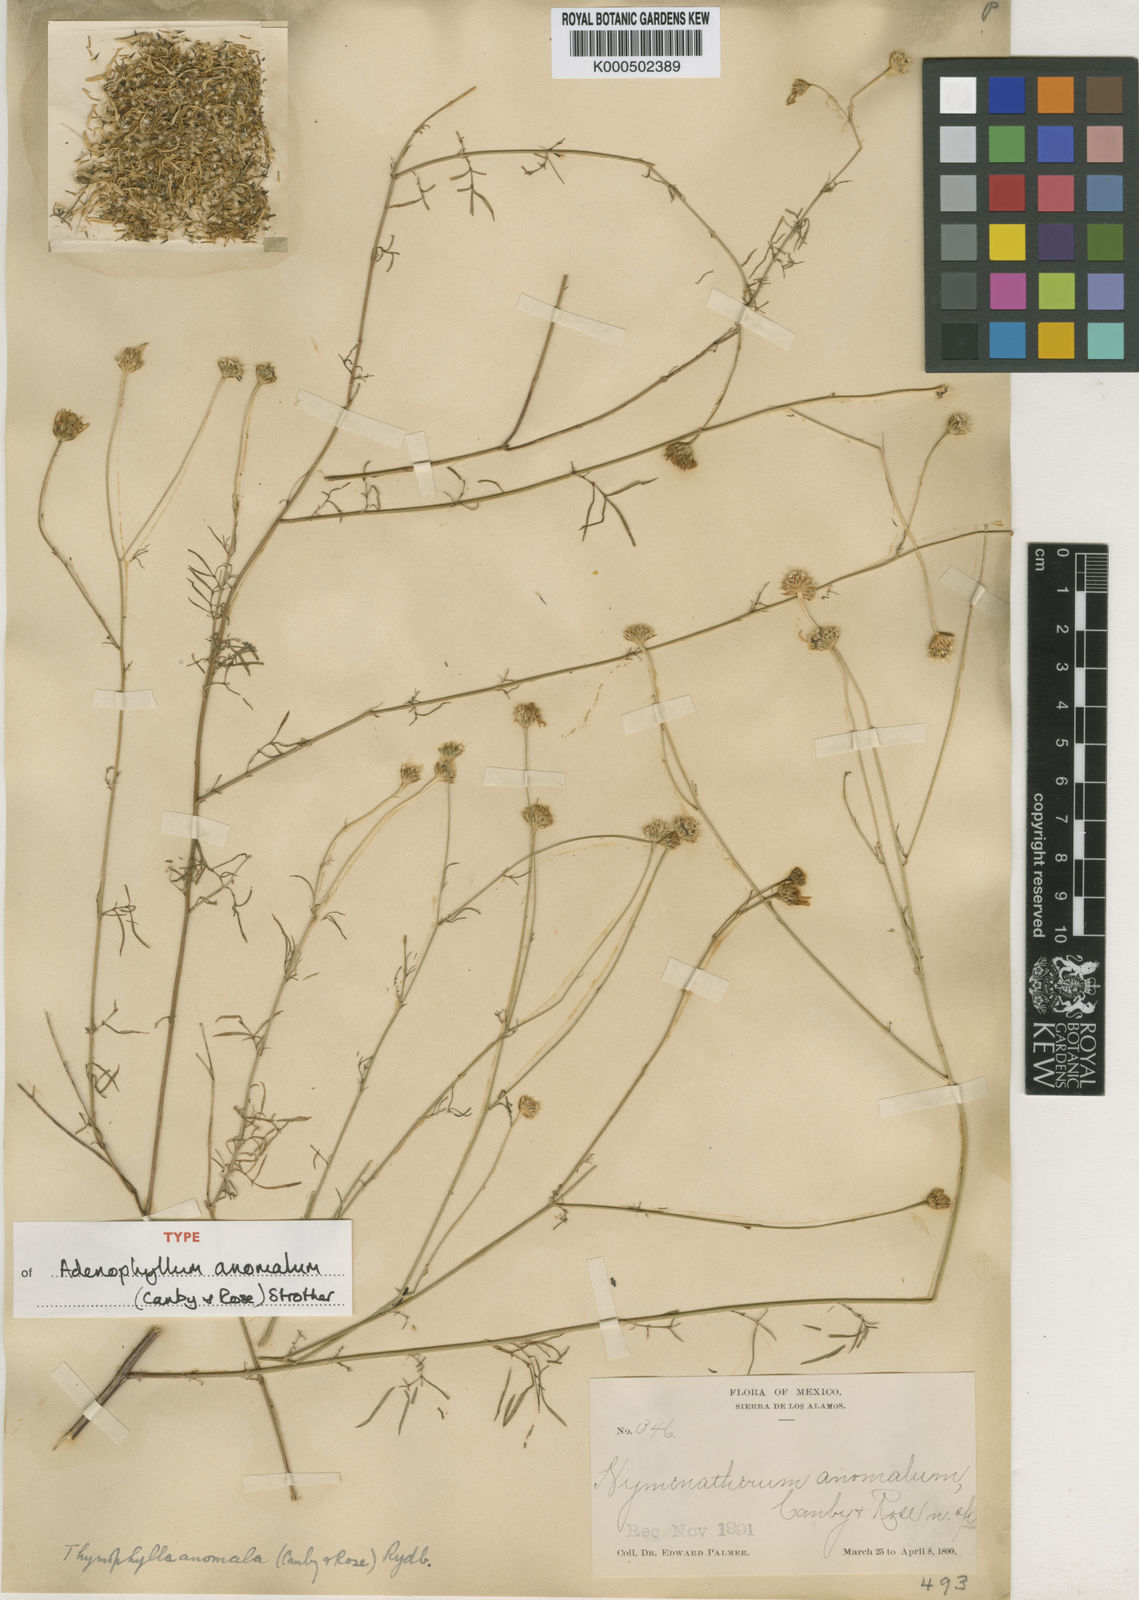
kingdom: Plantae
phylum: Tracheophyta
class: Magnoliopsida
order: Asterales
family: Asteraceae
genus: Adenophyllum
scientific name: Adenophyllum anomalum
